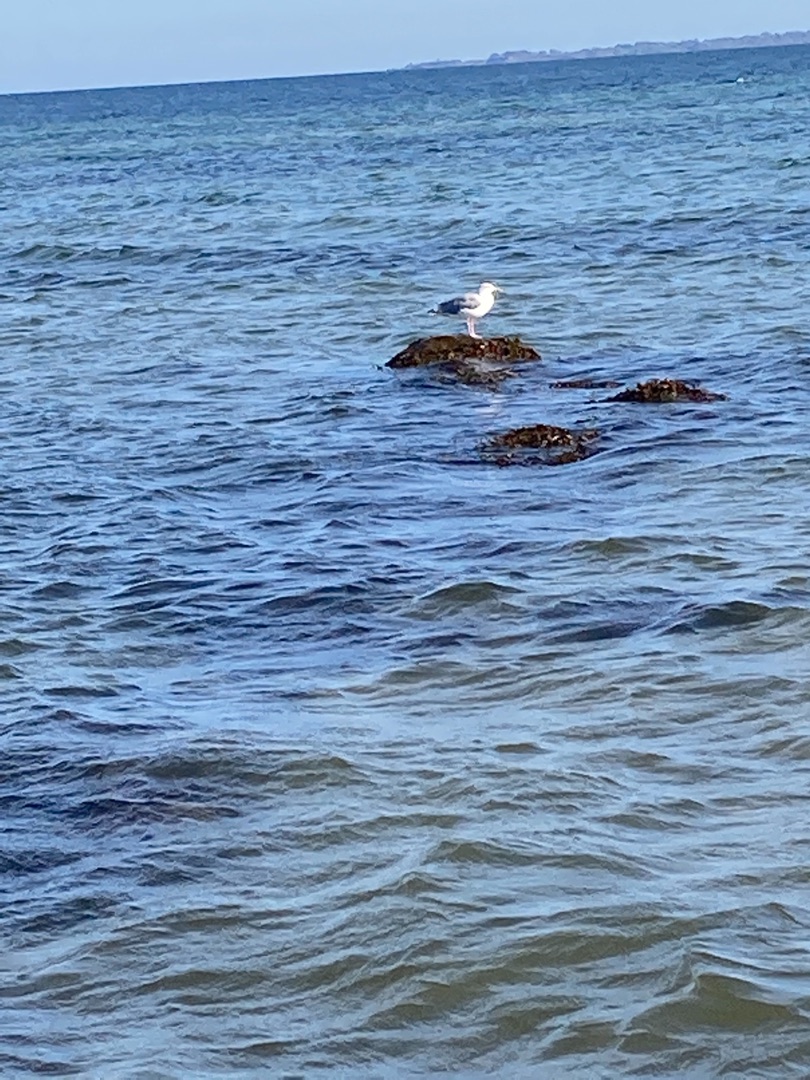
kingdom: Animalia
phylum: Chordata
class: Aves
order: Charadriiformes
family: Laridae
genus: Larus
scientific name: Larus argentatus
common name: Sølvmåge
